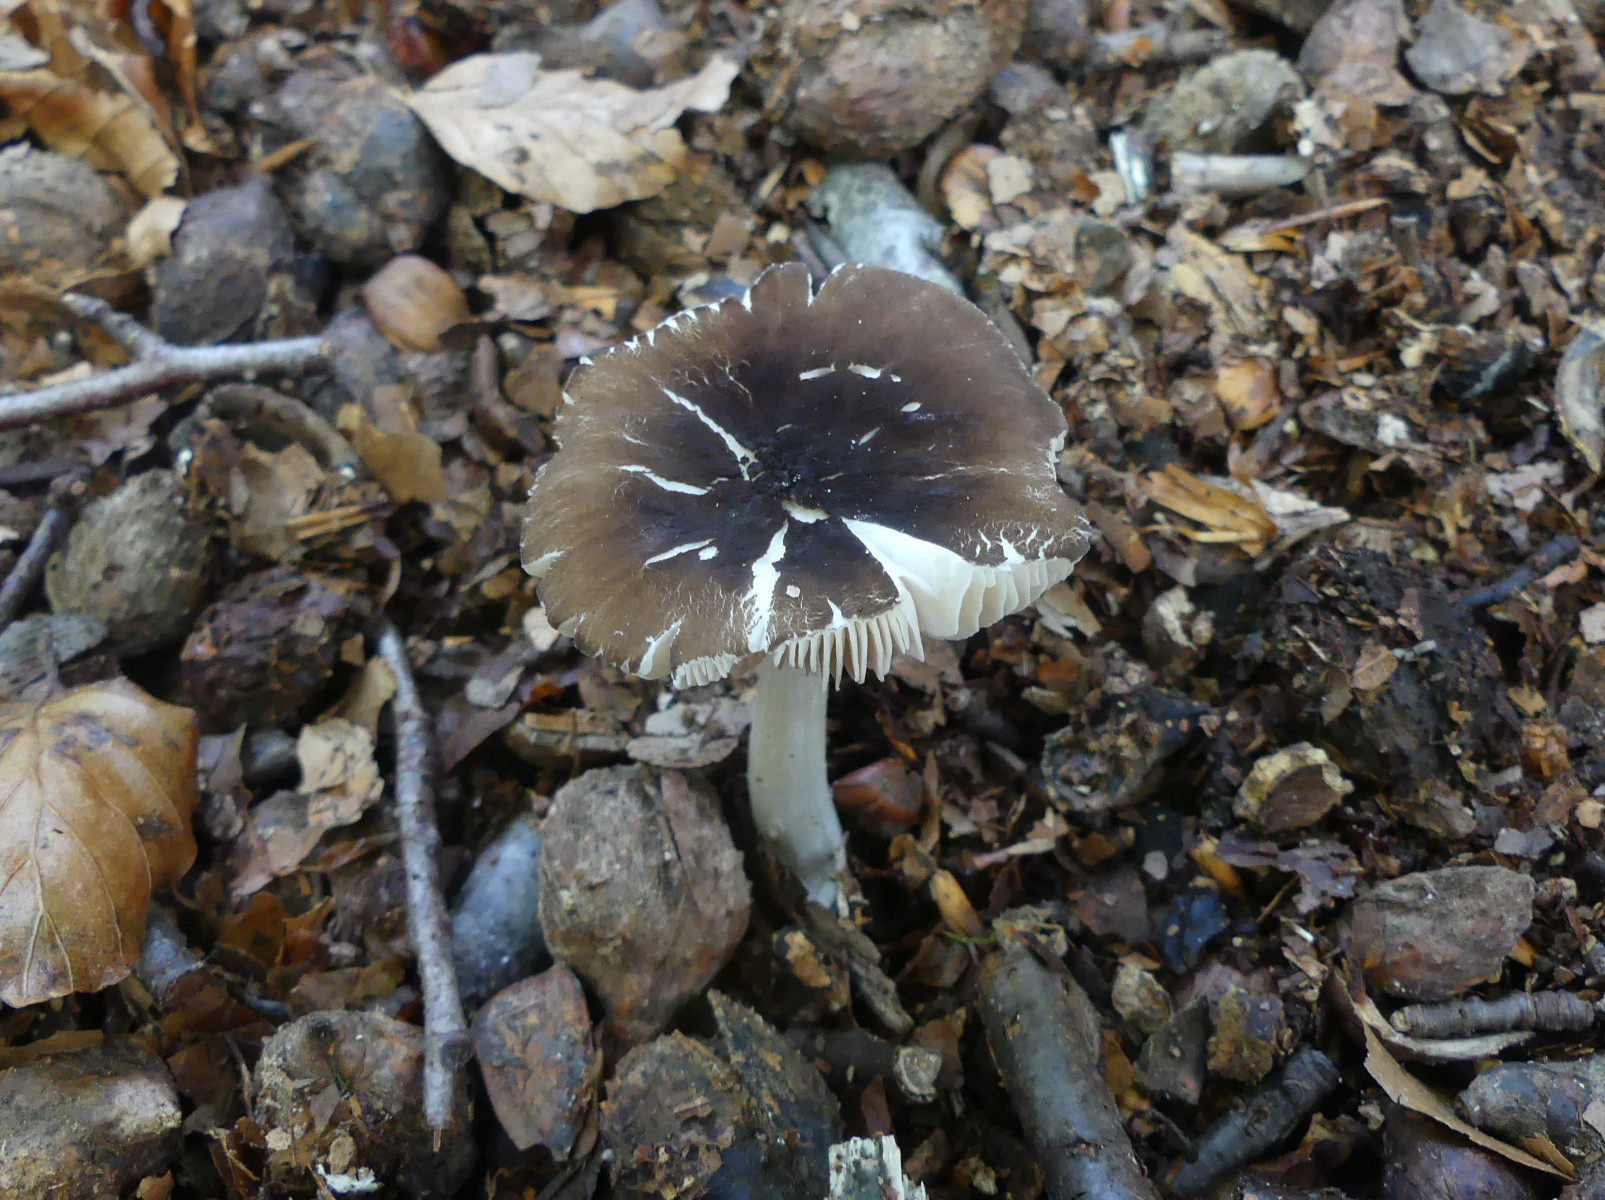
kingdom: Fungi
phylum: Basidiomycota
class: Agaricomycetes
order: Agaricales
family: Pluteaceae
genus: Pluteus
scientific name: Pluteus
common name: pudret skærmhat
